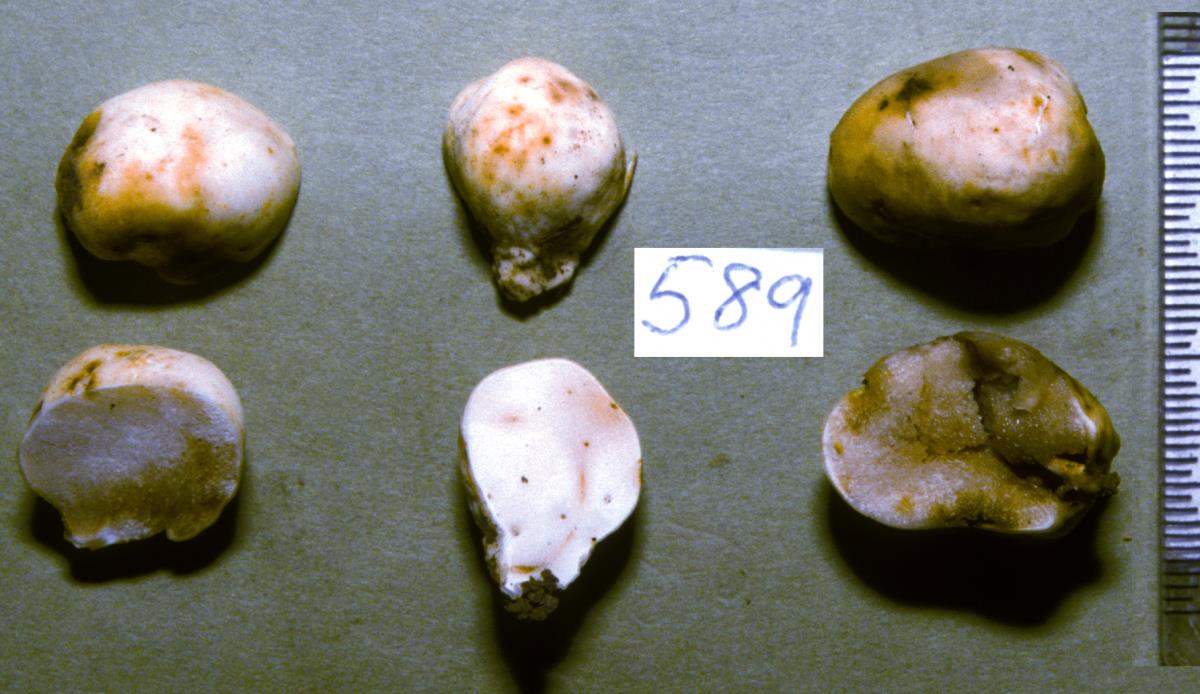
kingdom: Fungi
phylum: Basidiomycota
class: Agaricomycetes
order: Russulales
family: Russulaceae
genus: Zelleromyces
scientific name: Zelleromyces
